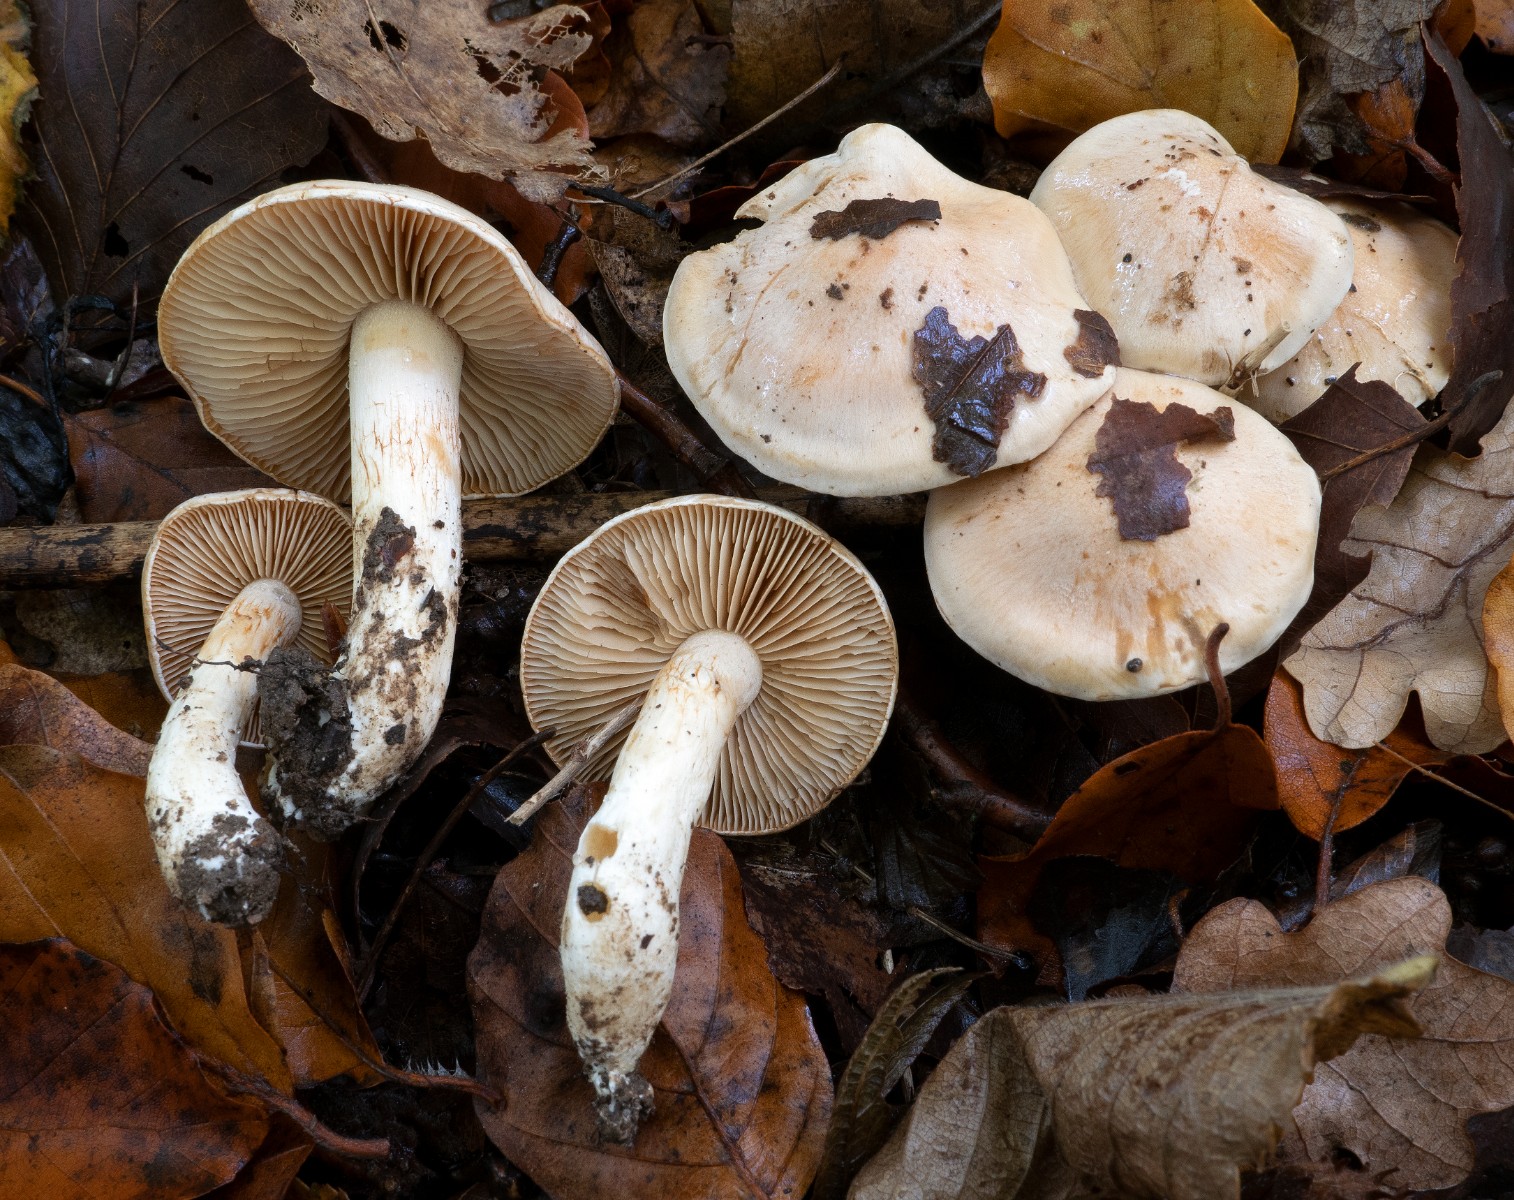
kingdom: Fungi
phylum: Basidiomycota
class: Agaricomycetes
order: Agaricales
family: Cortinariaceae
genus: Thaxterogaster
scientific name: Thaxterogaster leucoluteolus
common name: isabella slørhat
